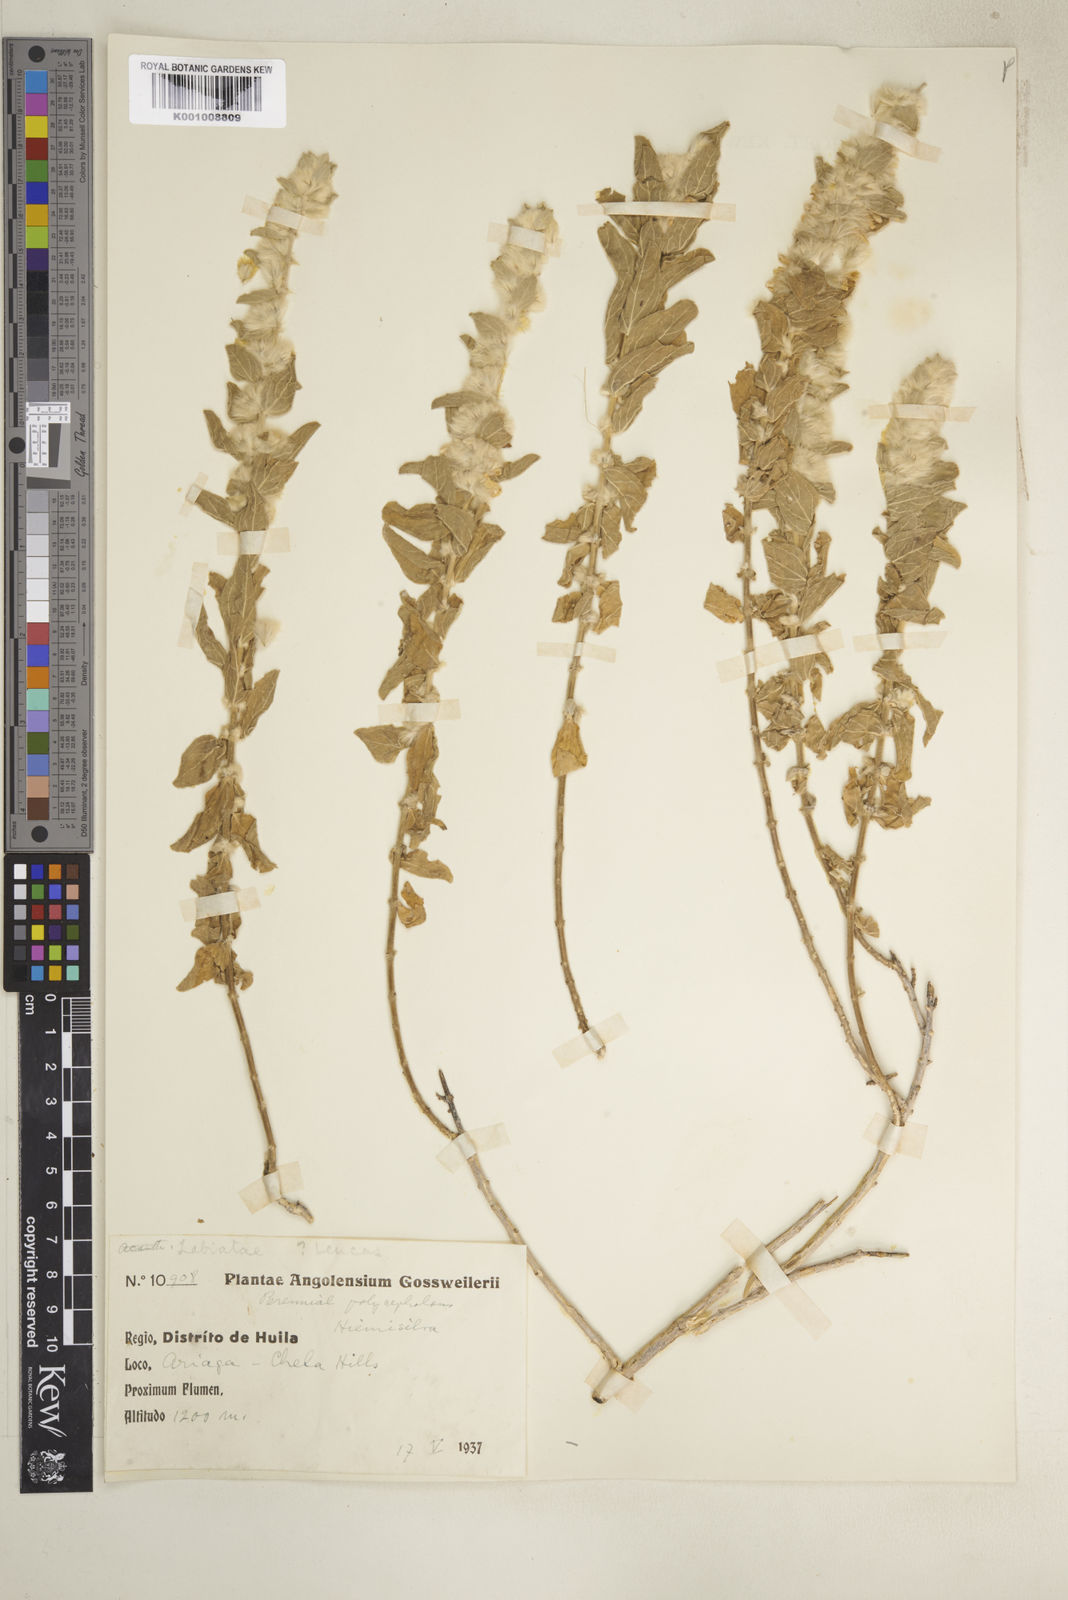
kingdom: Plantae
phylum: Tracheophyta
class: Magnoliopsida
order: Lamiales
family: Lamiaceae
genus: Leucas
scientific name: Leucas pechuelii
